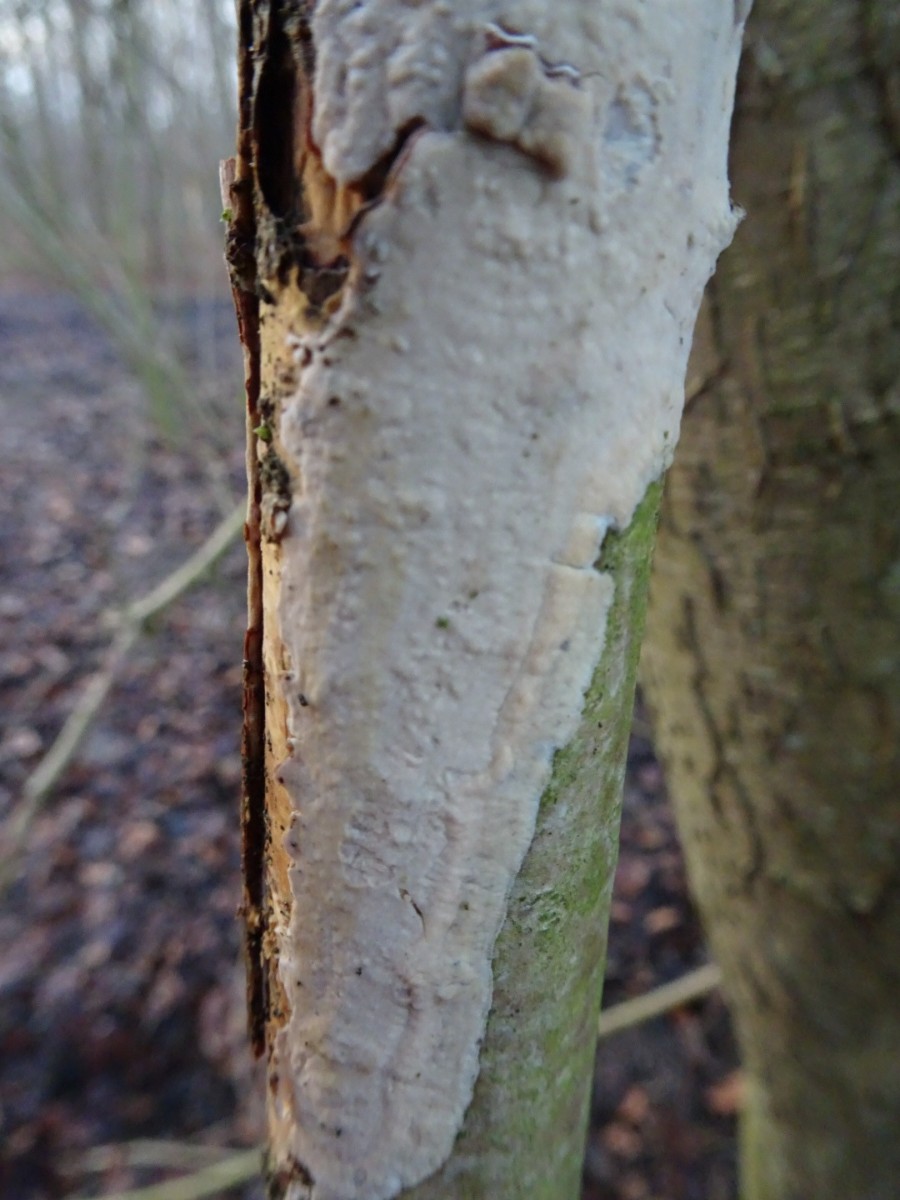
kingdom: Fungi
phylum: Basidiomycota
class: Agaricomycetes
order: Corticiales
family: Corticiaceae
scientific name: Corticiaceae
